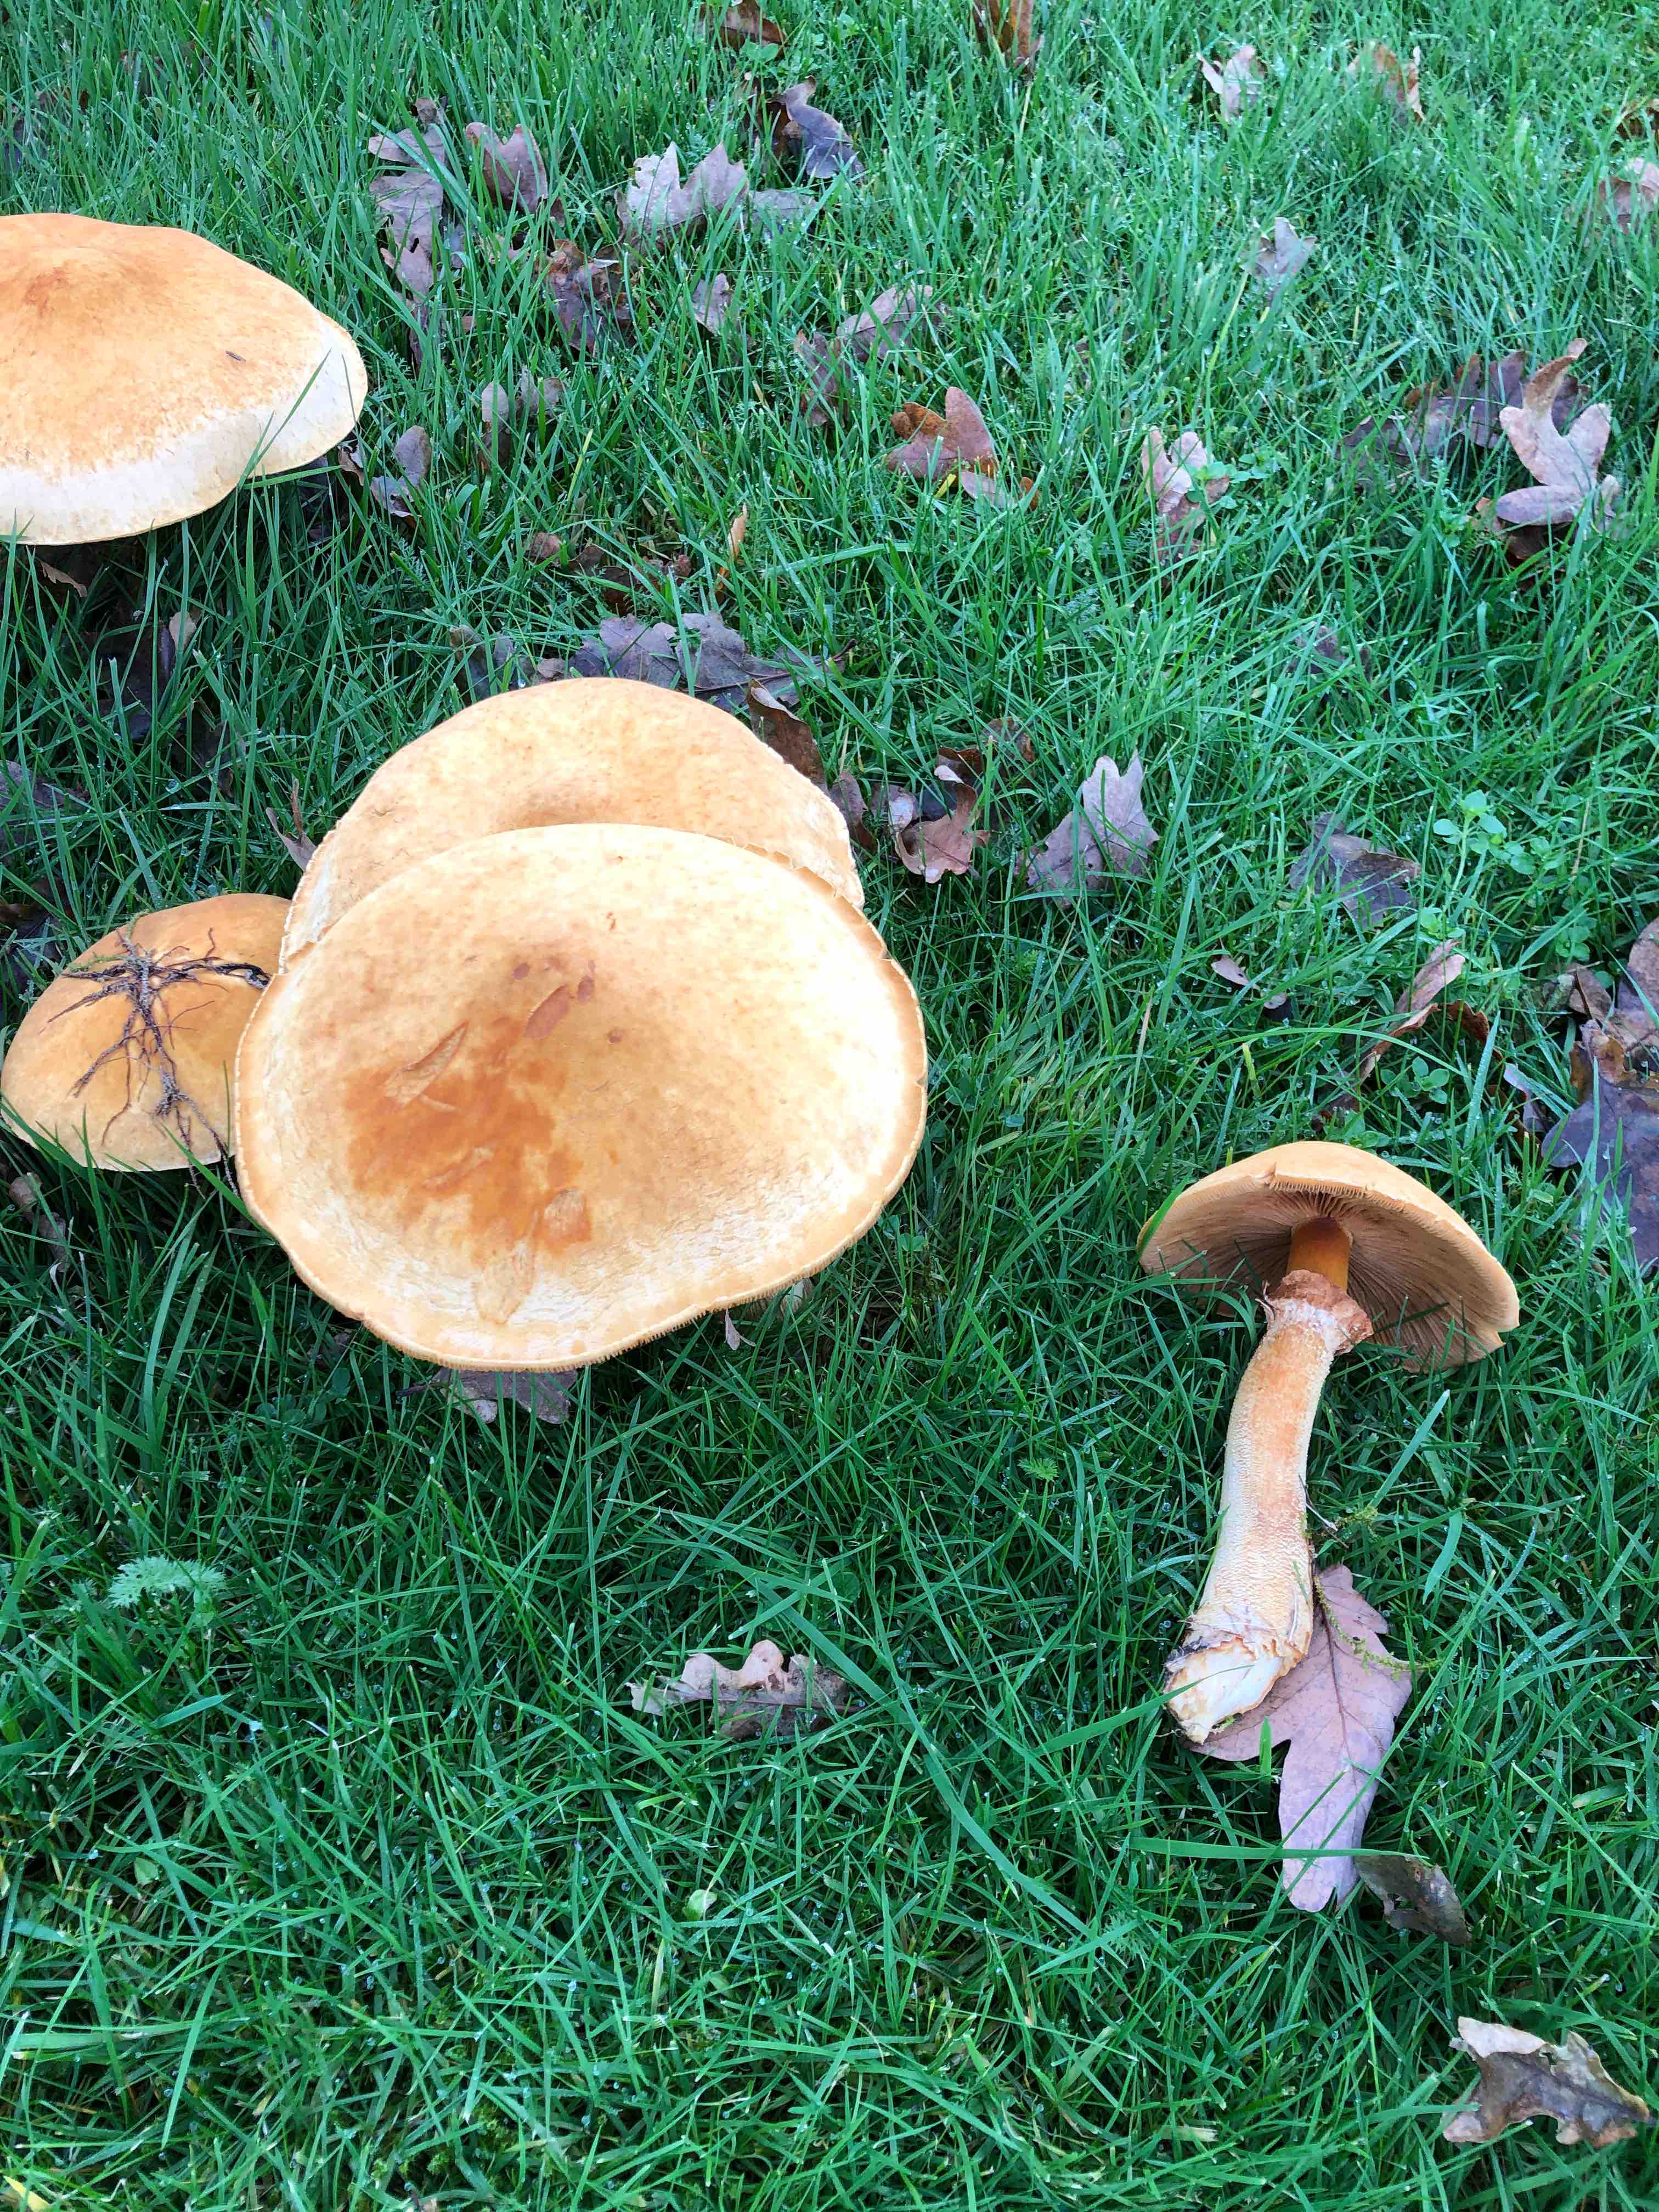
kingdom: Fungi
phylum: Basidiomycota
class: Agaricomycetes
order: Agaricales
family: Tricholomataceae
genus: Phaeolepiota
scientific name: Phaeolepiota aurea
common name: gyldenhat
